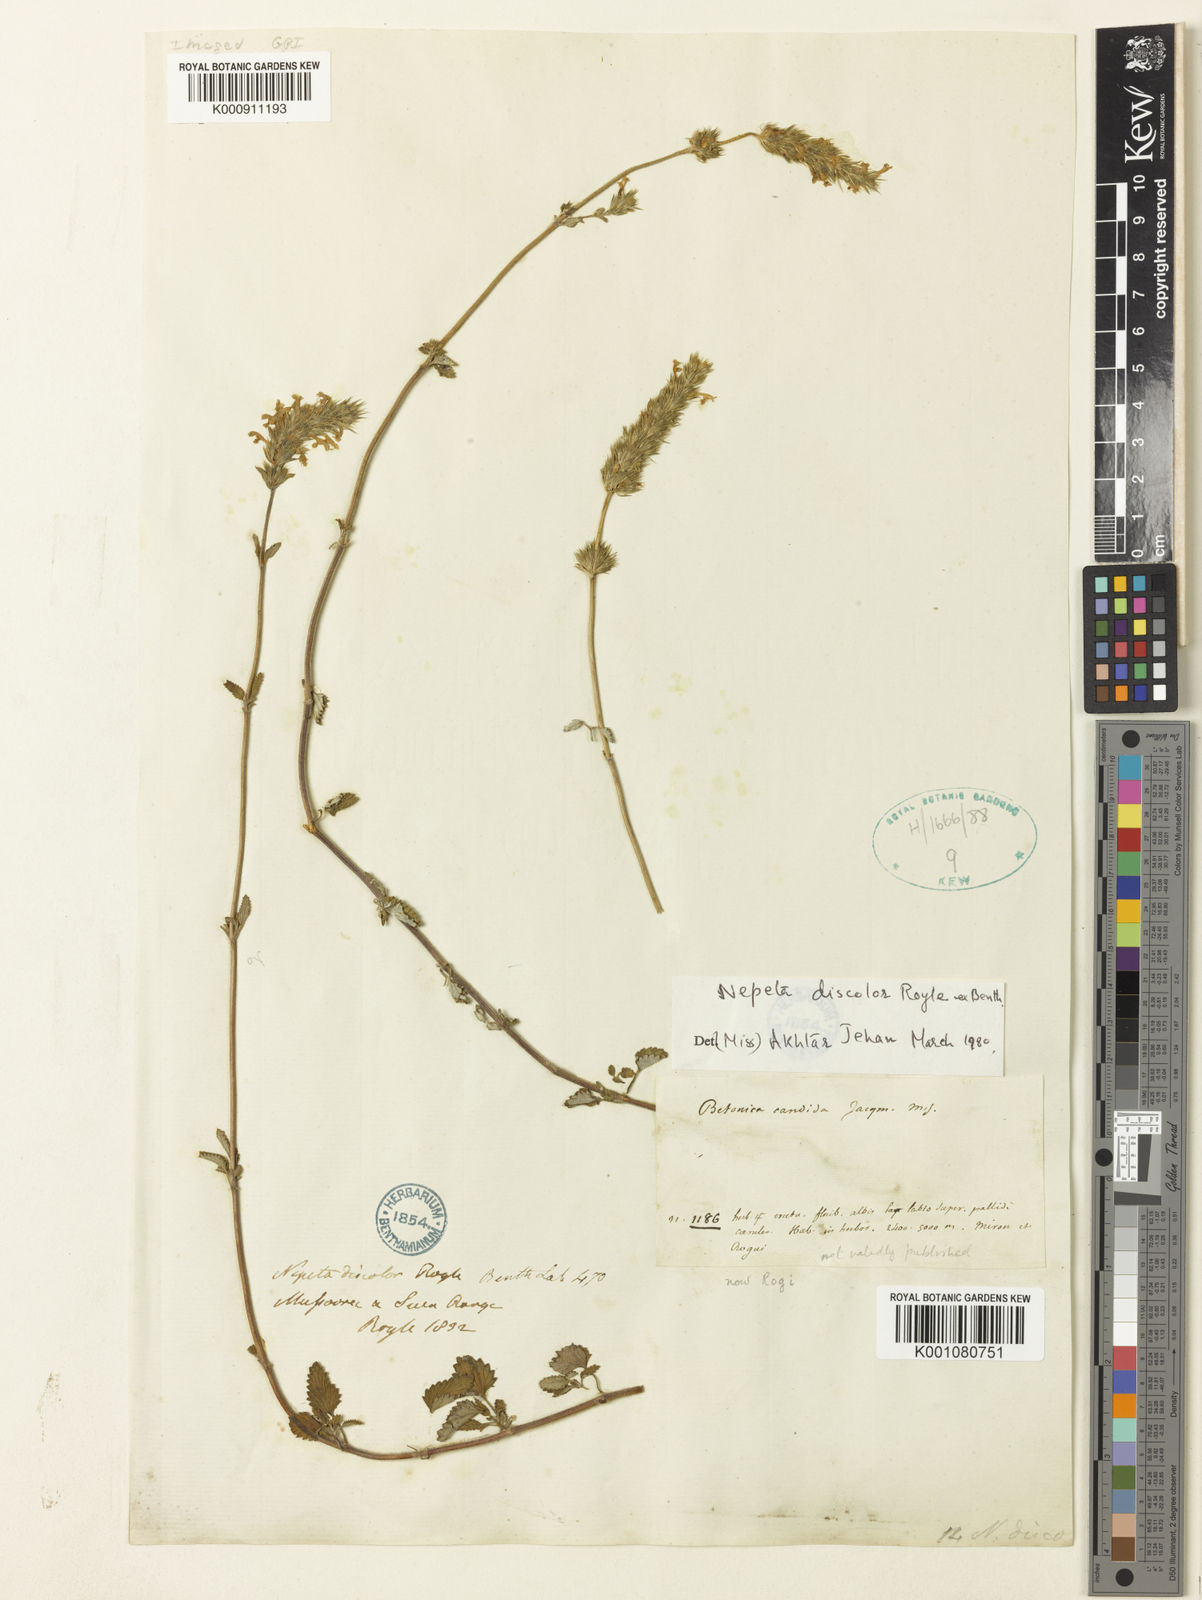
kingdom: Plantae
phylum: Tracheophyta
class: Magnoliopsida
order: Lamiales
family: Lamiaceae
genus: Nepeta
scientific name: Nepeta discolor
